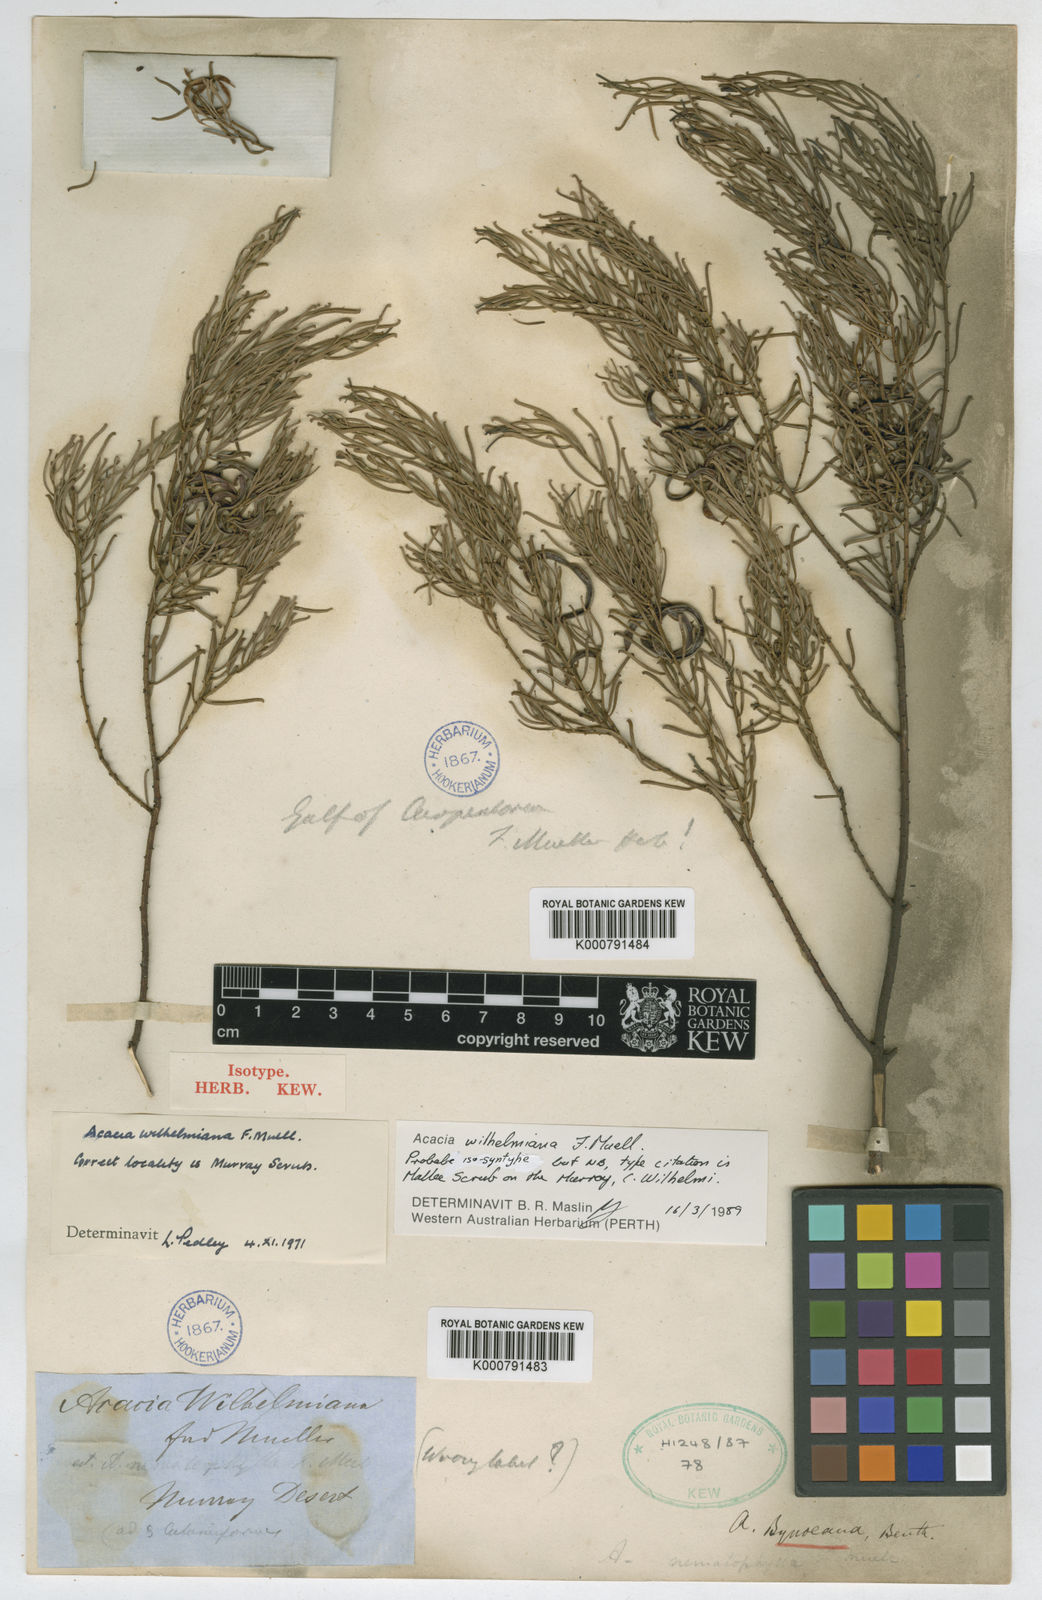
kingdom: Plantae
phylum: Tracheophyta
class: Magnoliopsida
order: Fabales
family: Fabaceae
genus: Acacia
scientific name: Acacia wilhelmiana
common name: Dwarf nealie
